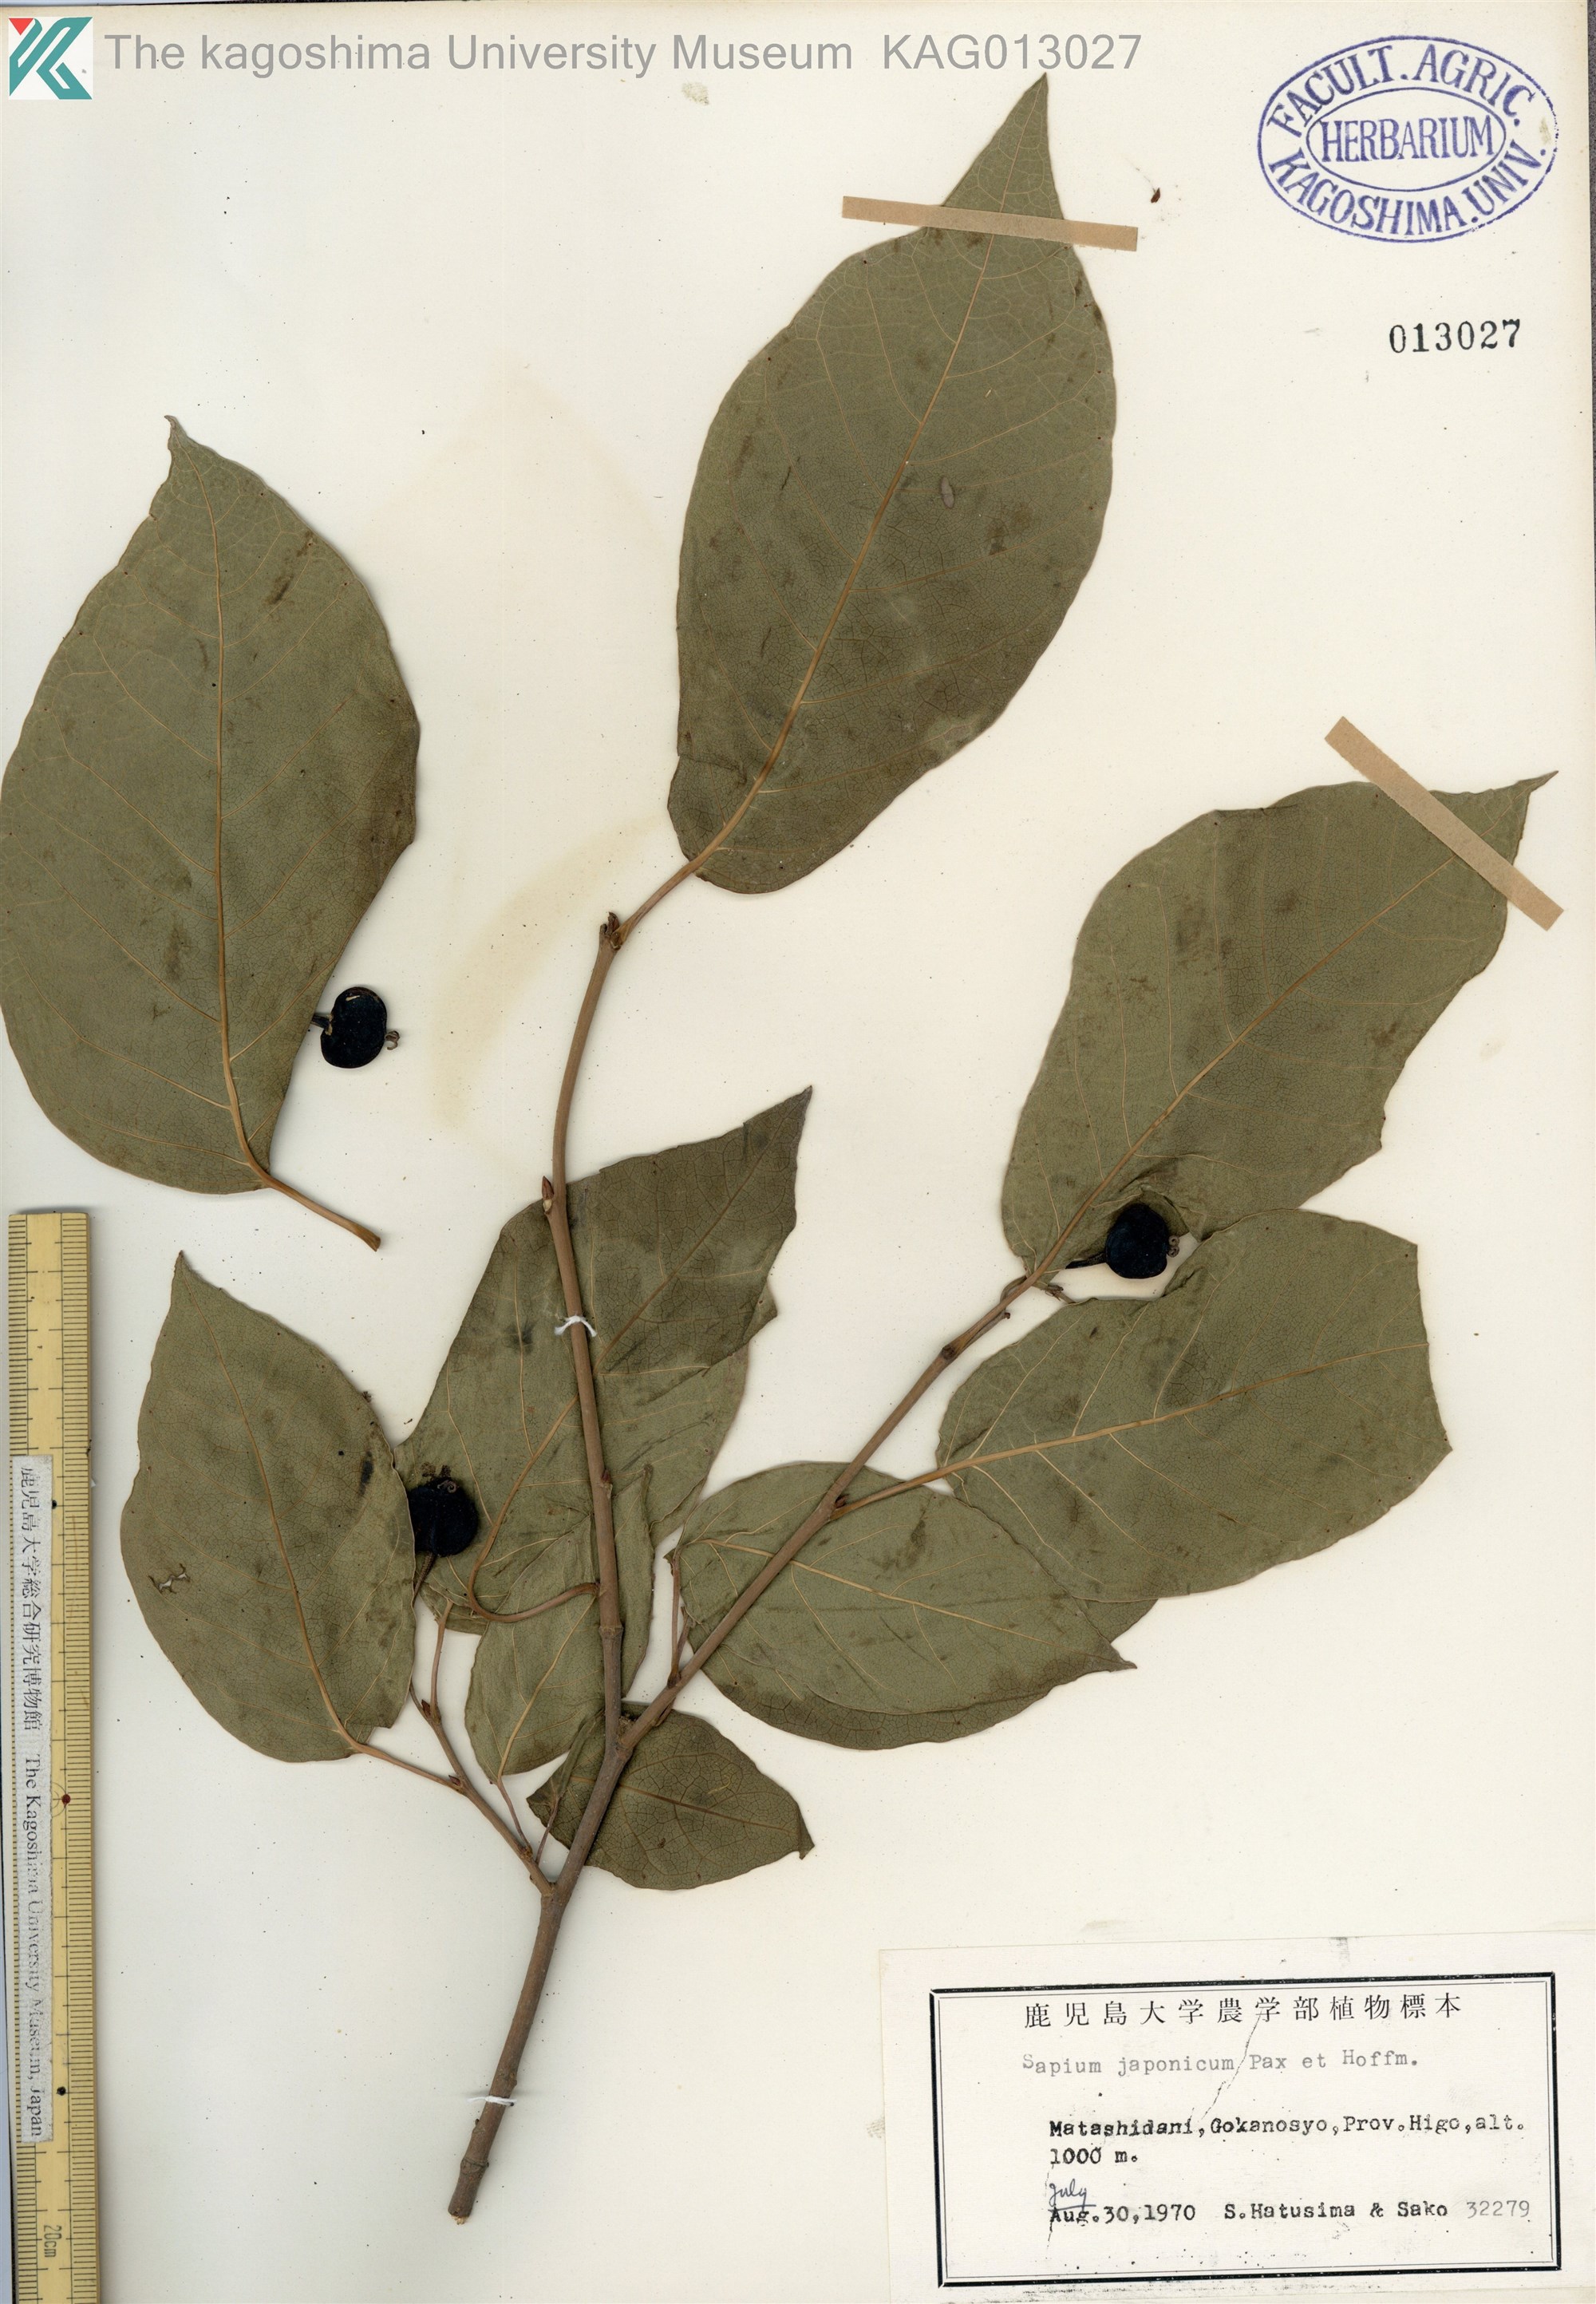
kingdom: Plantae
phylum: Tracheophyta
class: Magnoliopsida
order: Malpighiales
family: Euphorbiaceae
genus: Neoshirakia
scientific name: Neoshirakia japonica
